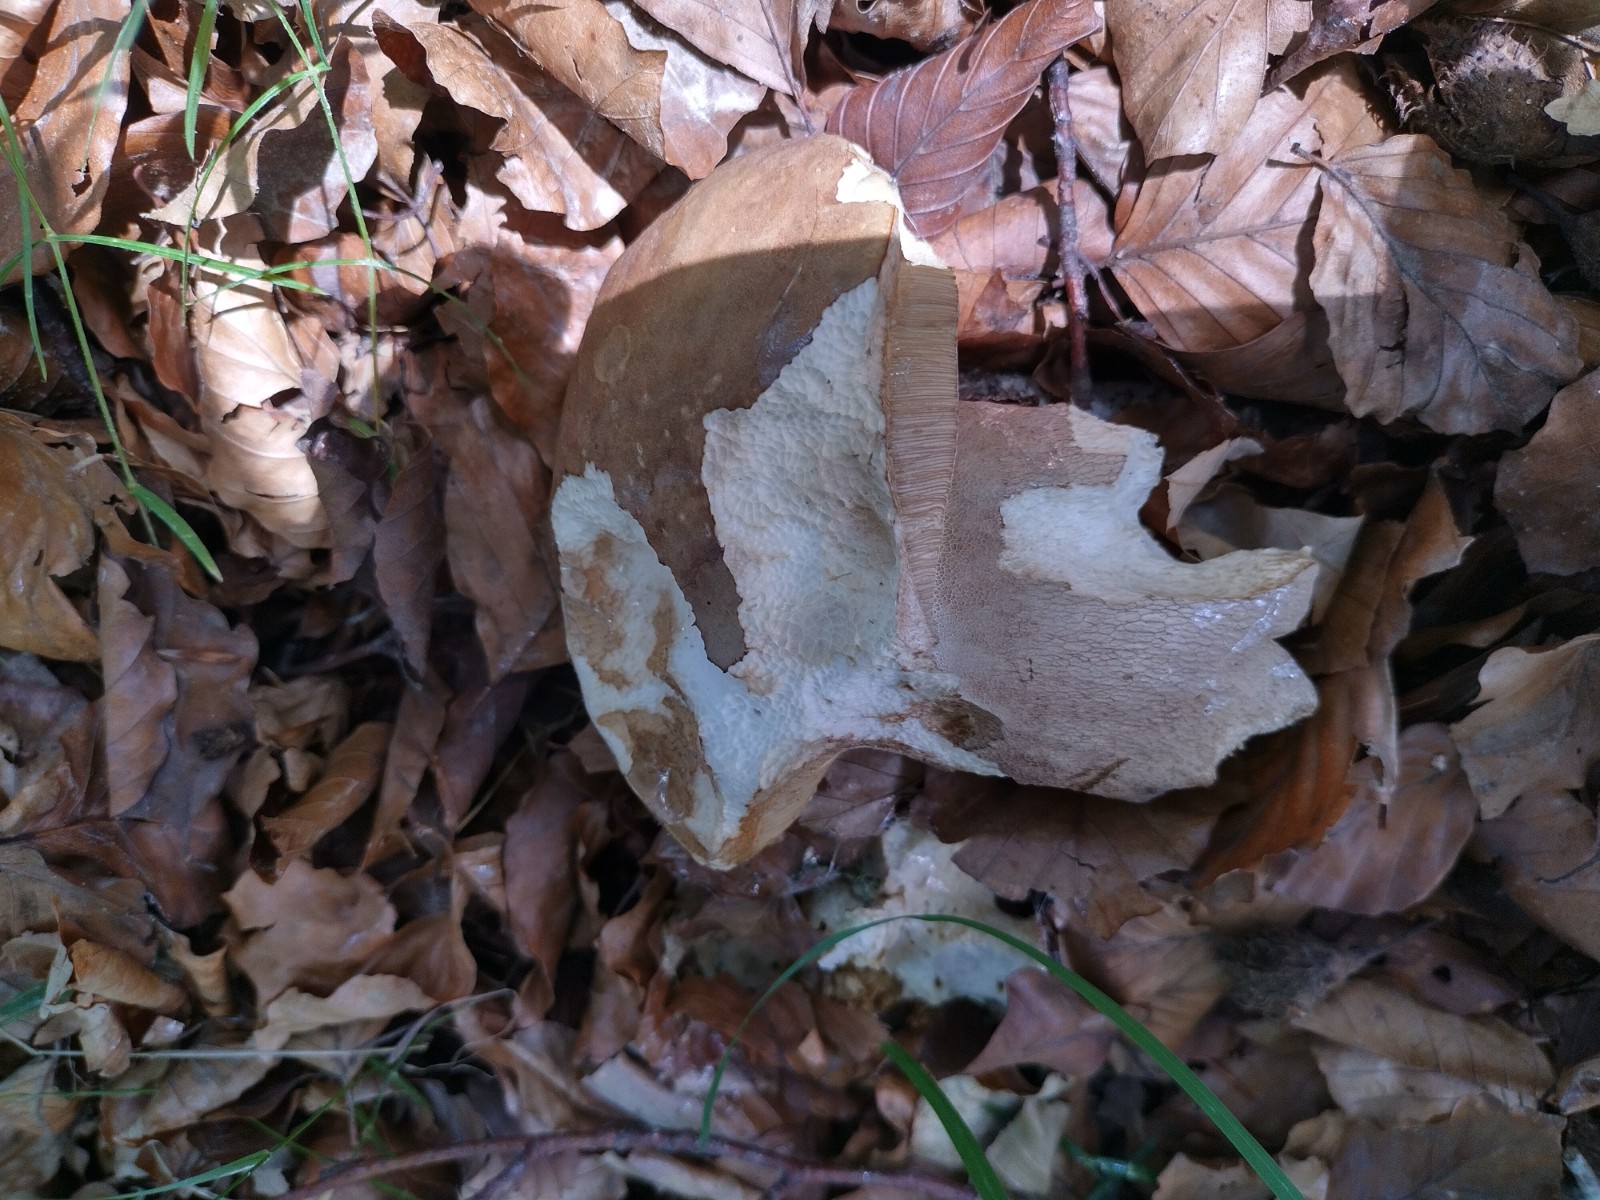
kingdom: Fungi
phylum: Basidiomycota
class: Agaricomycetes
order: Boletales
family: Boletaceae
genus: Boletus
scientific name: Boletus reticulatus
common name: sommer-rørhat
